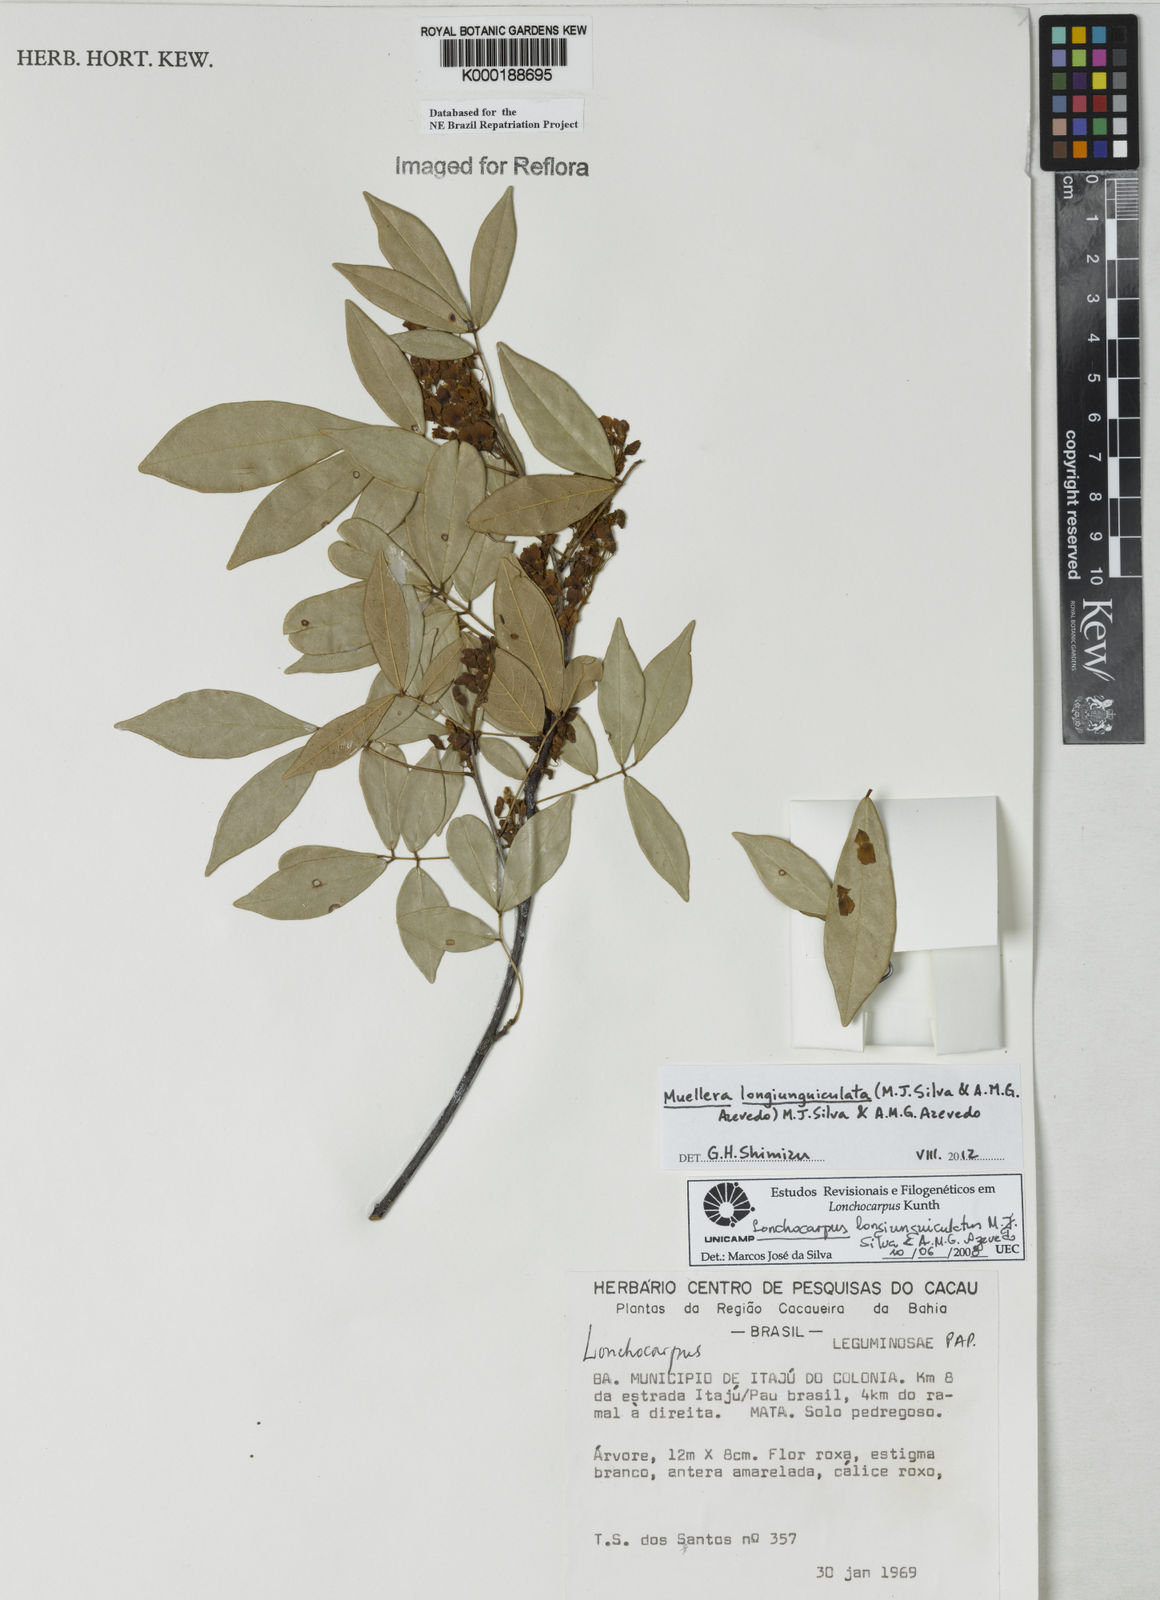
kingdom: Plantae
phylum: Tracheophyta
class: Magnoliopsida
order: Fabales
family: Fabaceae
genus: Lonchocarpus
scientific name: Lonchocarpus
